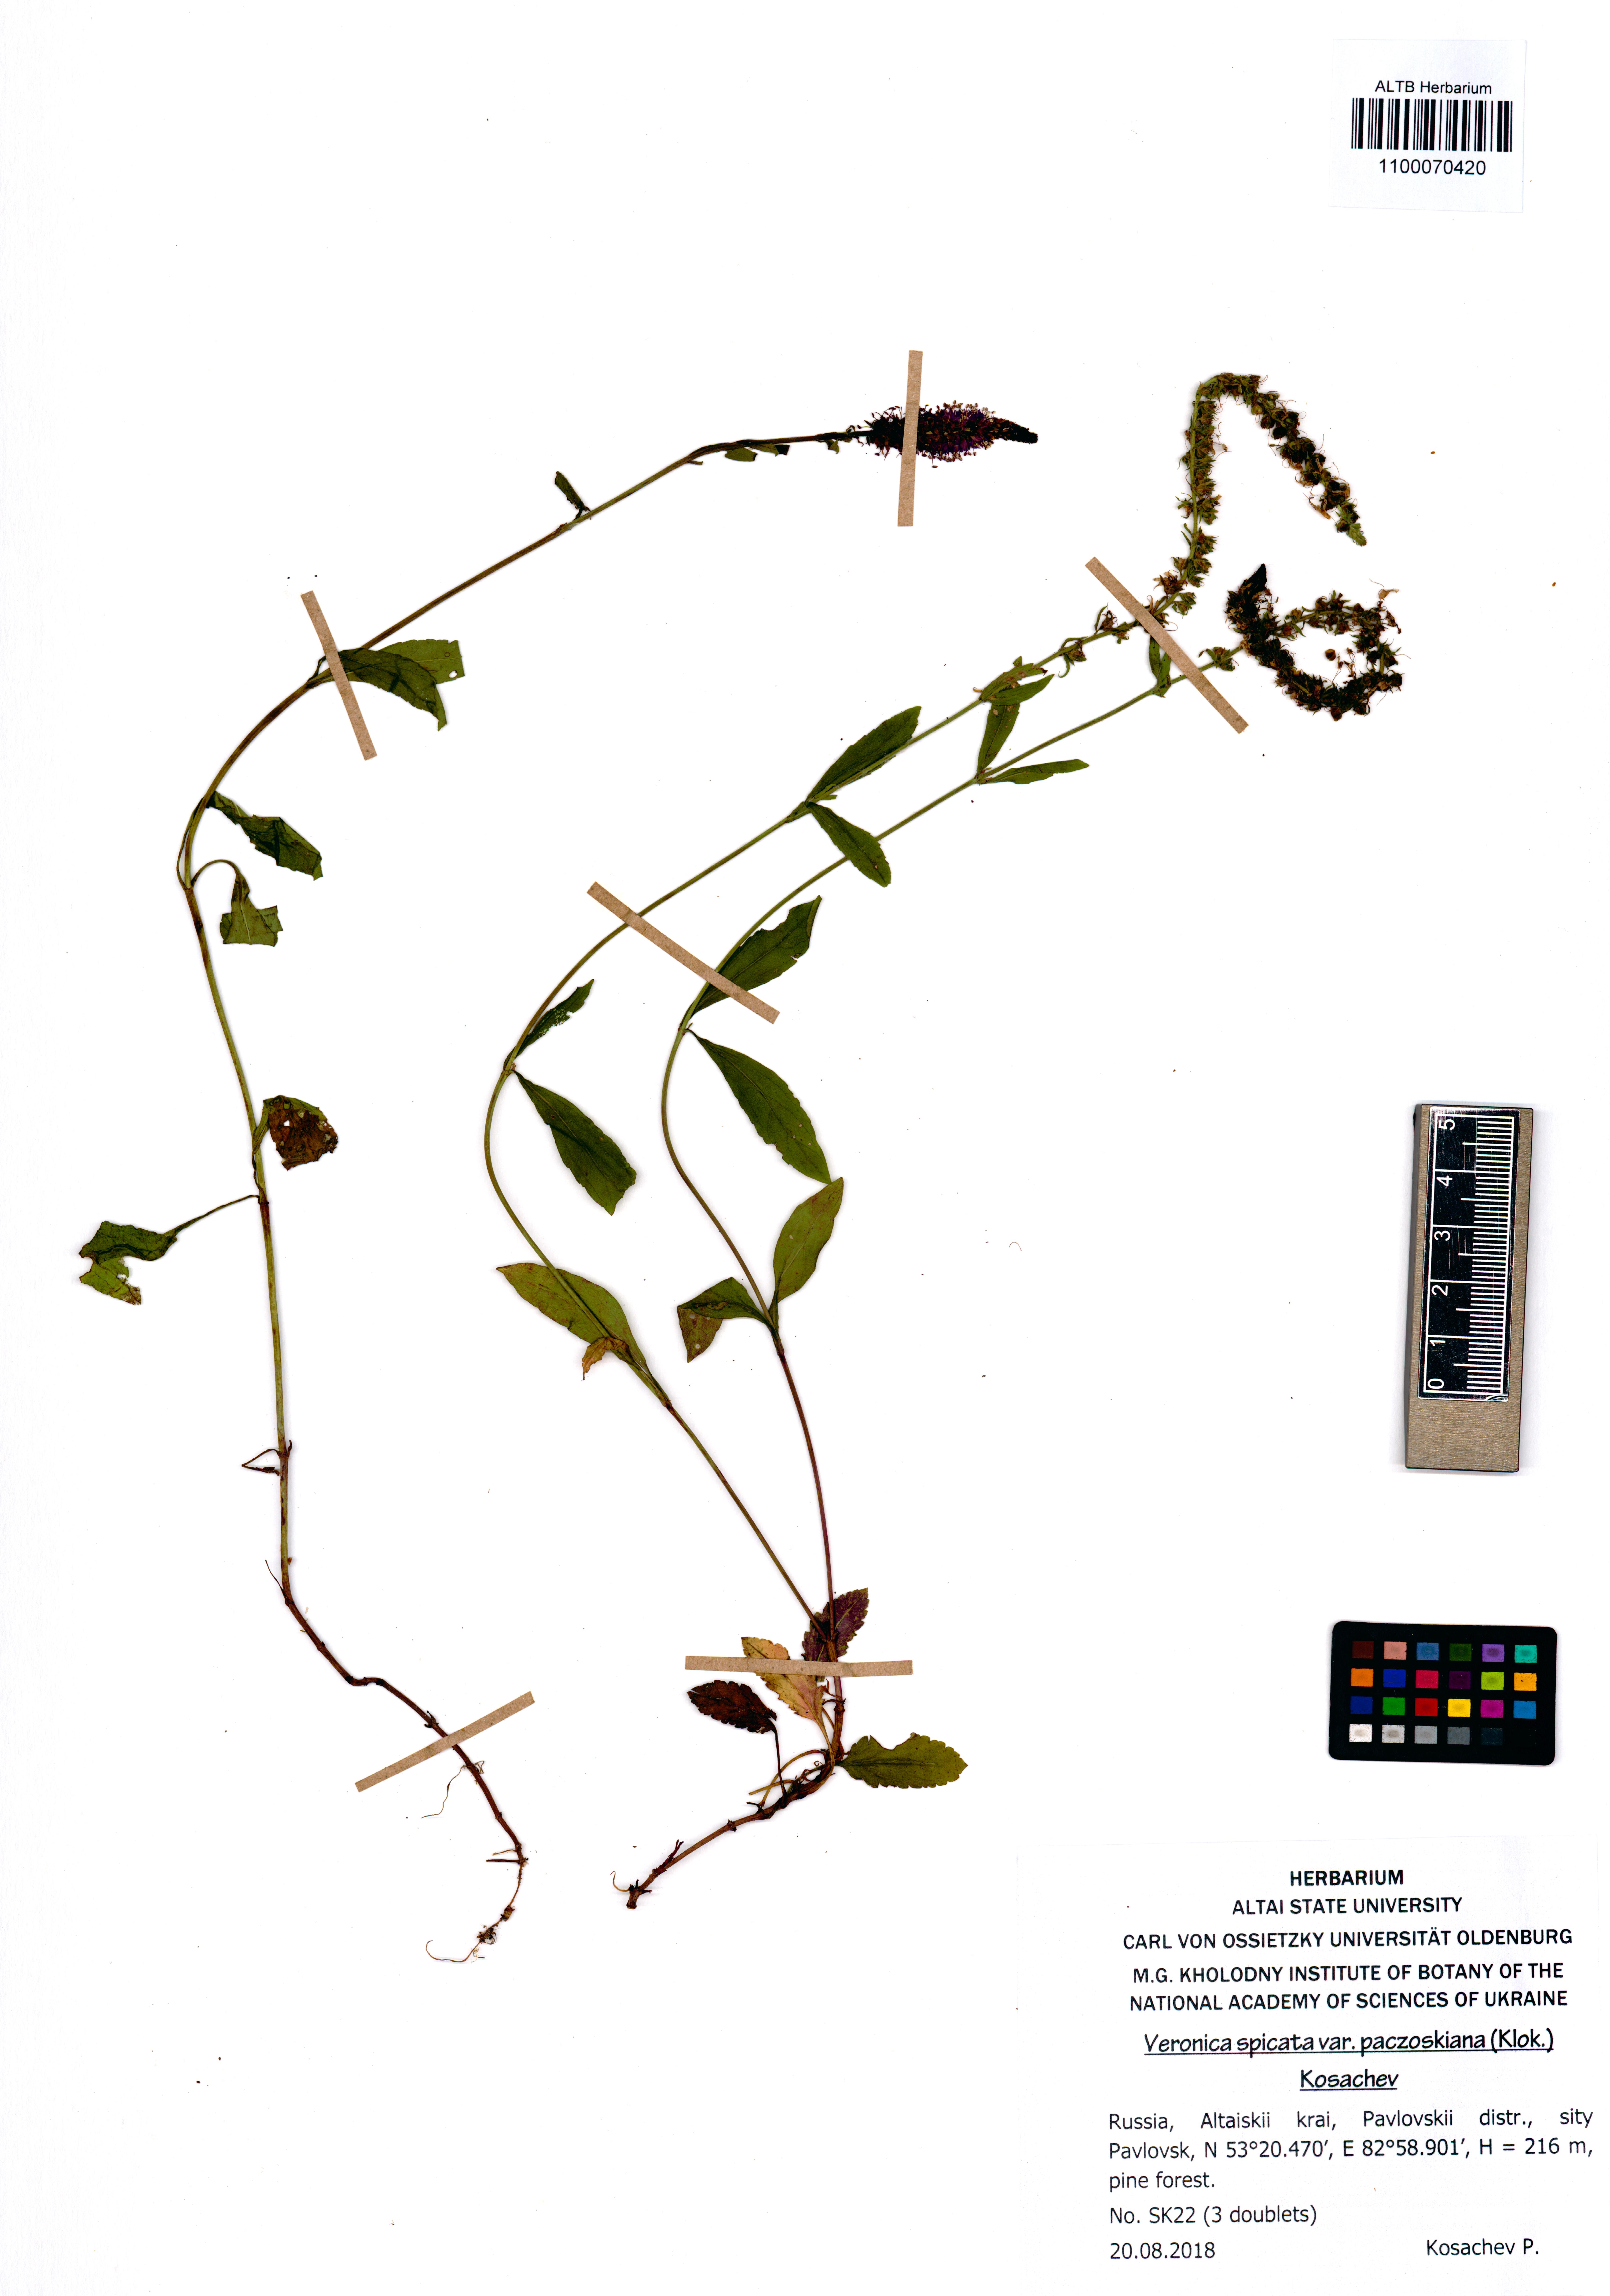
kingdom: Plantae
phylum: Tracheophyta
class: Magnoliopsida
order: Lamiales
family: Plantaginaceae
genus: Veronica
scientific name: Veronica spicata
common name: Spiked speedwell
